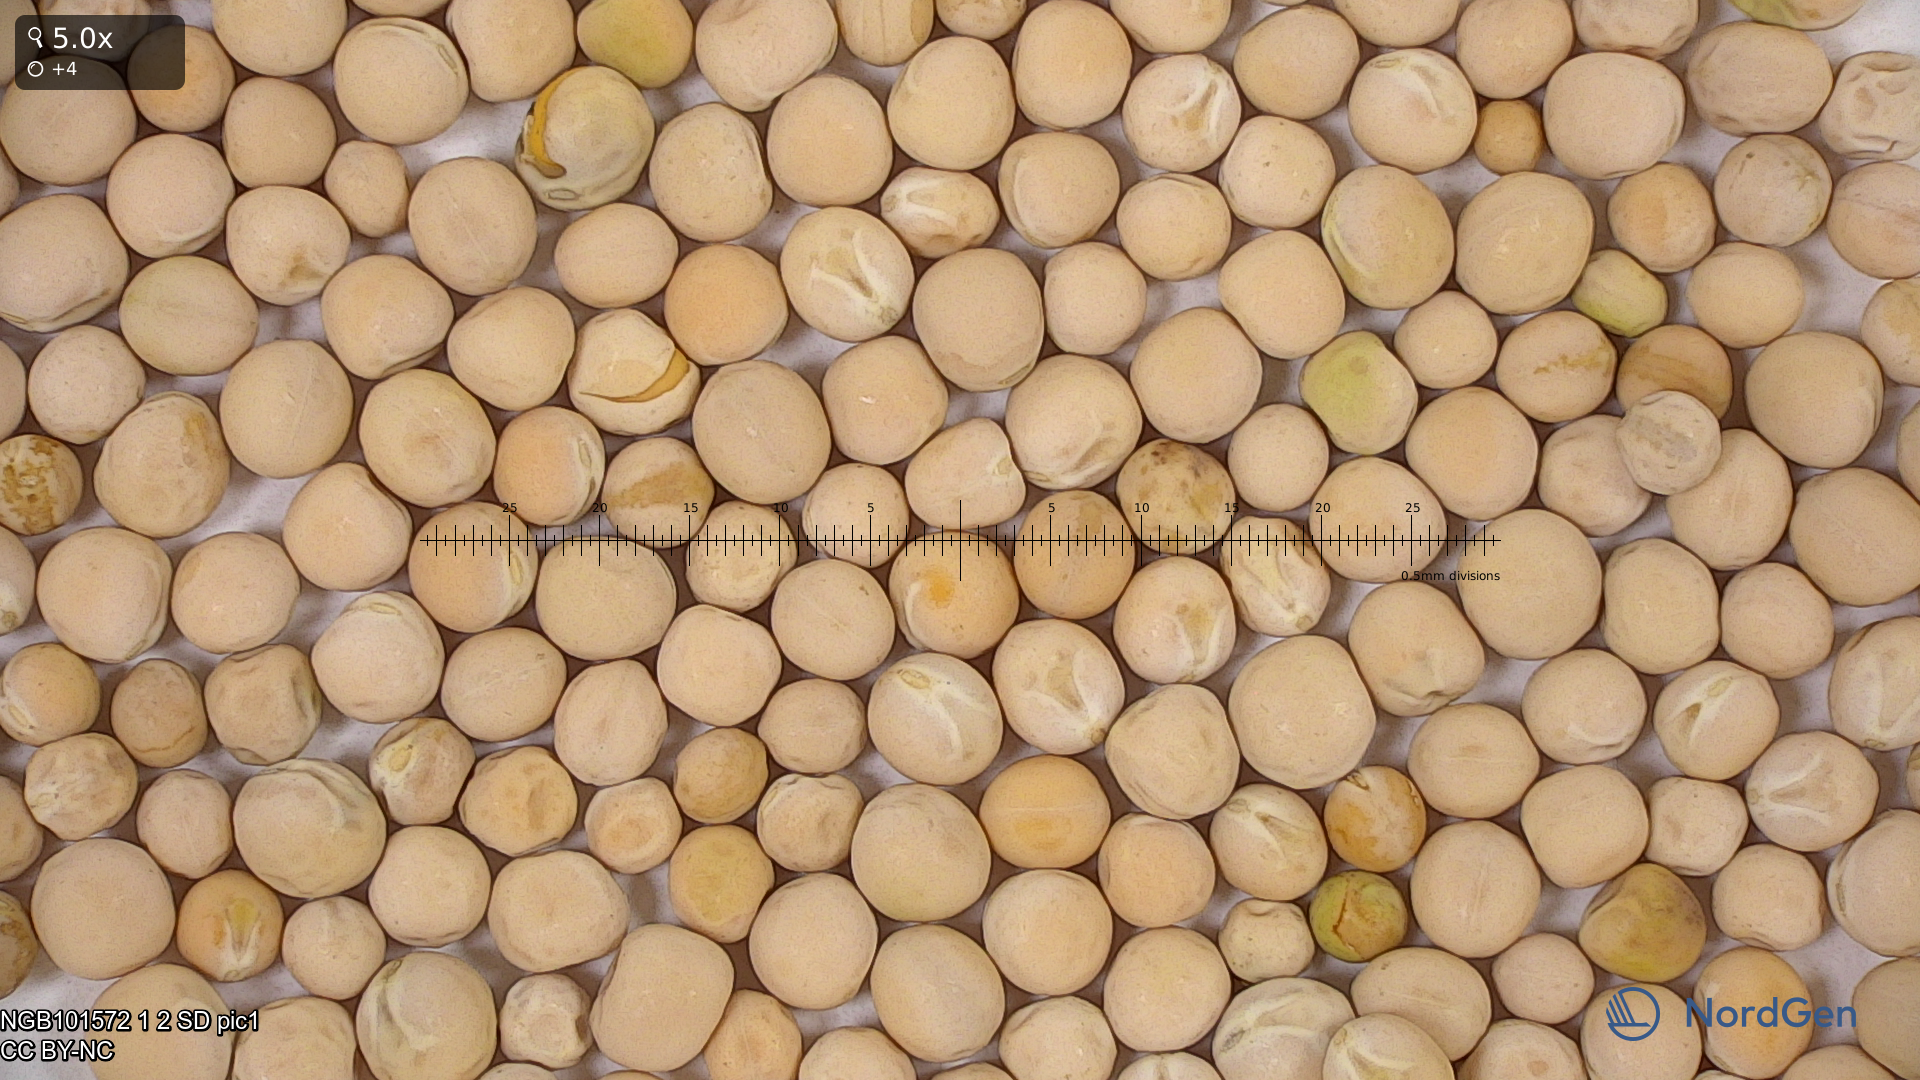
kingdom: Plantae
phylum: Tracheophyta
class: Magnoliopsida
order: Fabales
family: Fabaceae
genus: Lathyrus
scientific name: Lathyrus oleraceus
